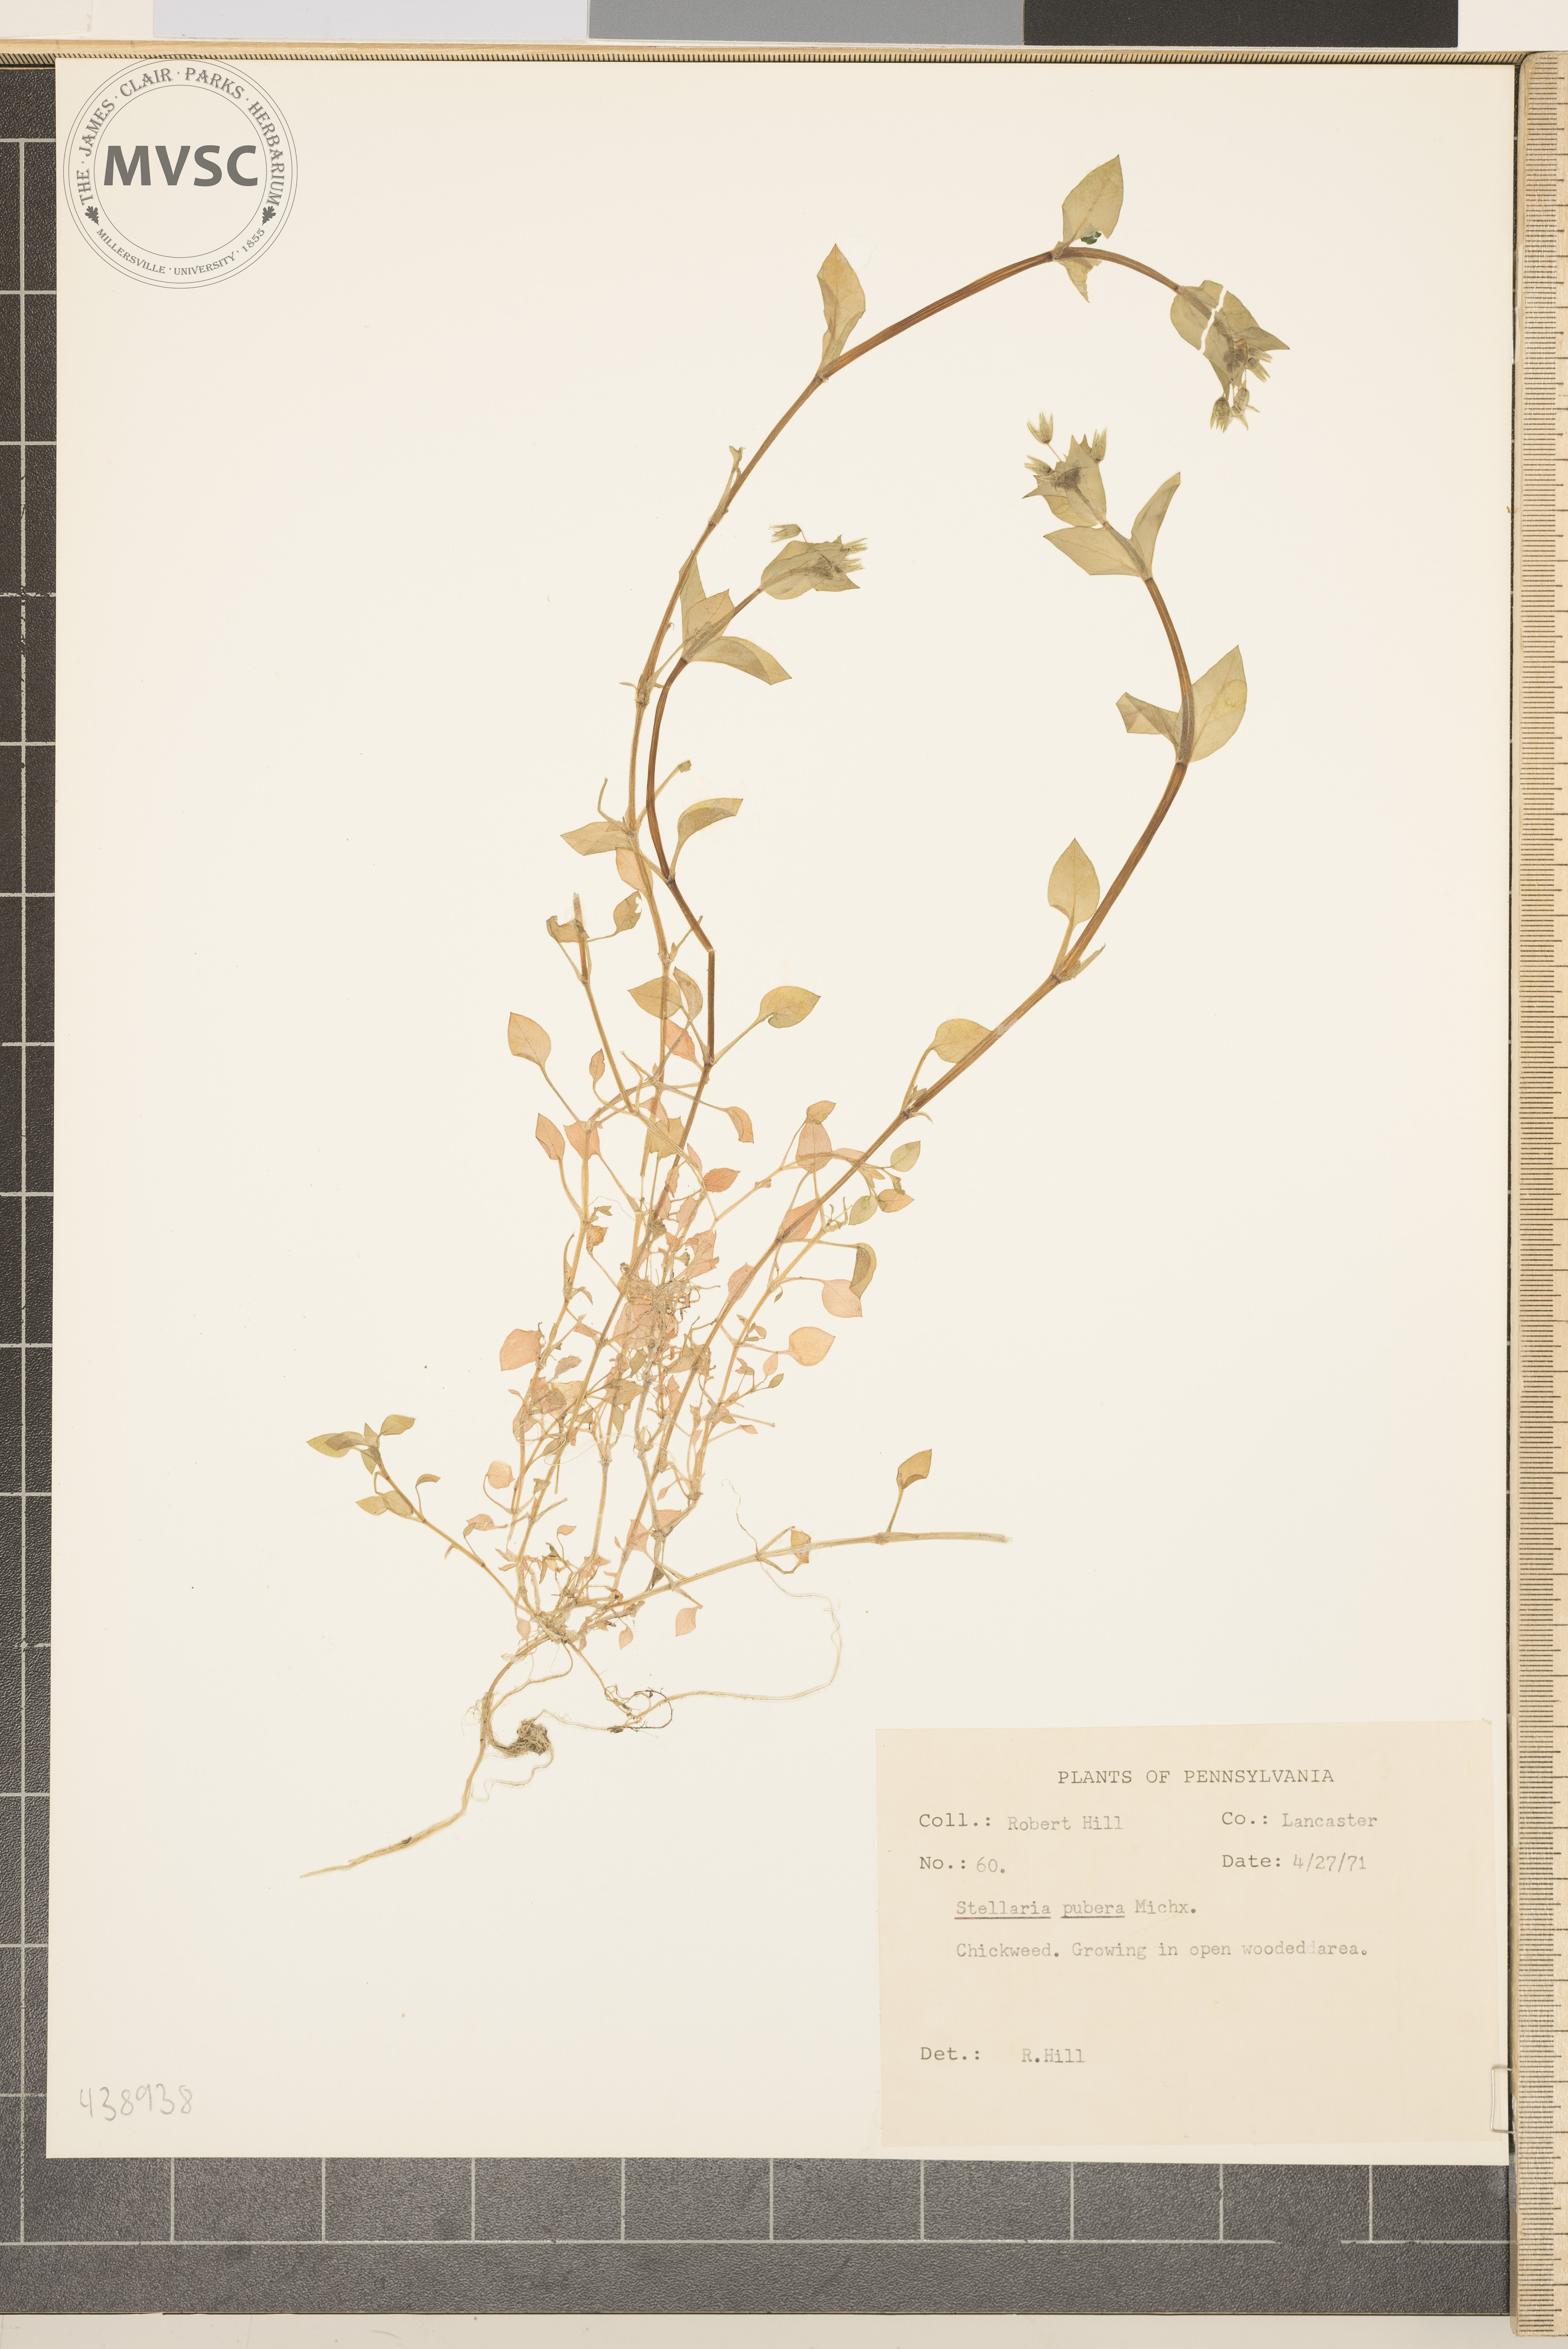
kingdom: Plantae
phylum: Tracheophyta
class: Magnoliopsida
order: Caryophyllales
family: Caryophyllaceae
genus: Stellaria
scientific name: Stellaria pubera
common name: Chickweed
